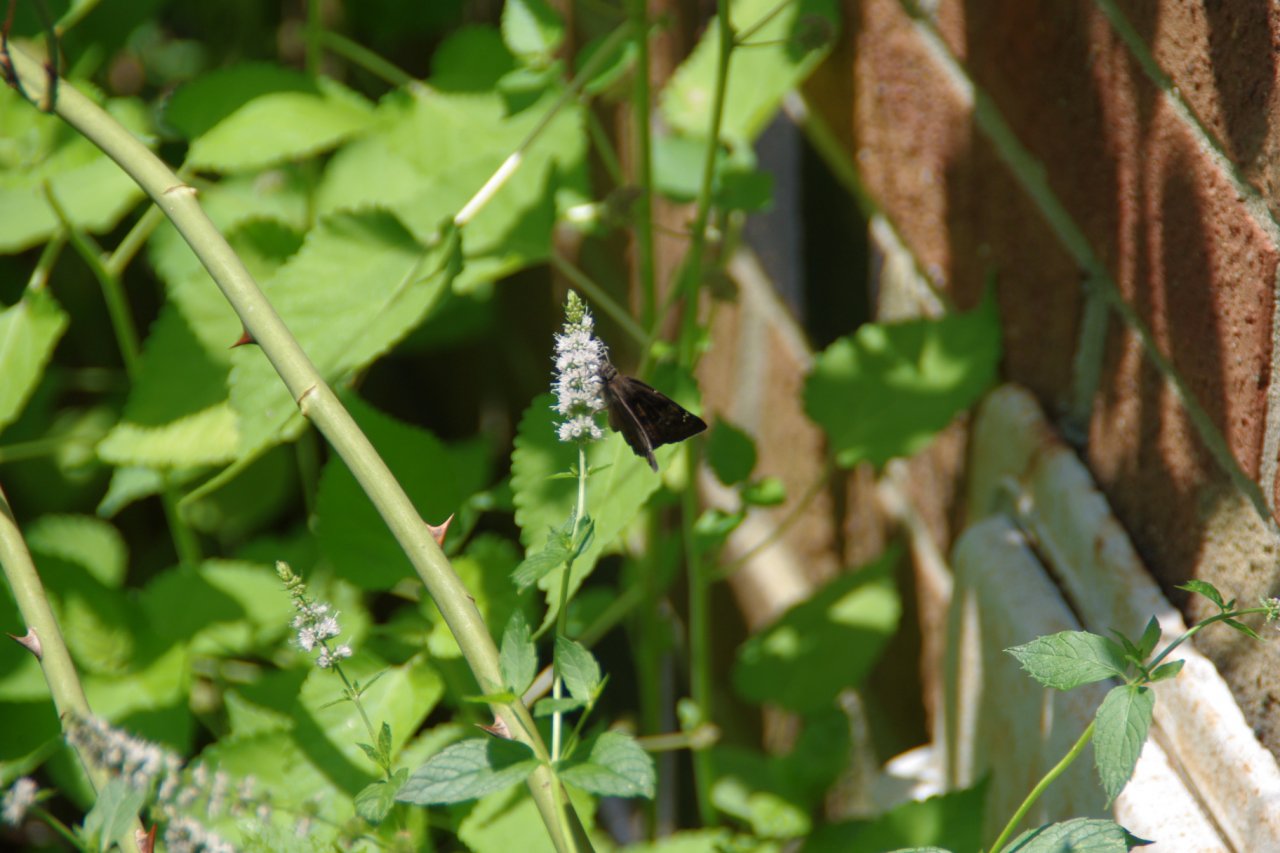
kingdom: Animalia
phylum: Arthropoda
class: Insecta
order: Lepidoptera
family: Hesperiidae
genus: Gesta
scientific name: Gesta
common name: Horace's Duskywing
